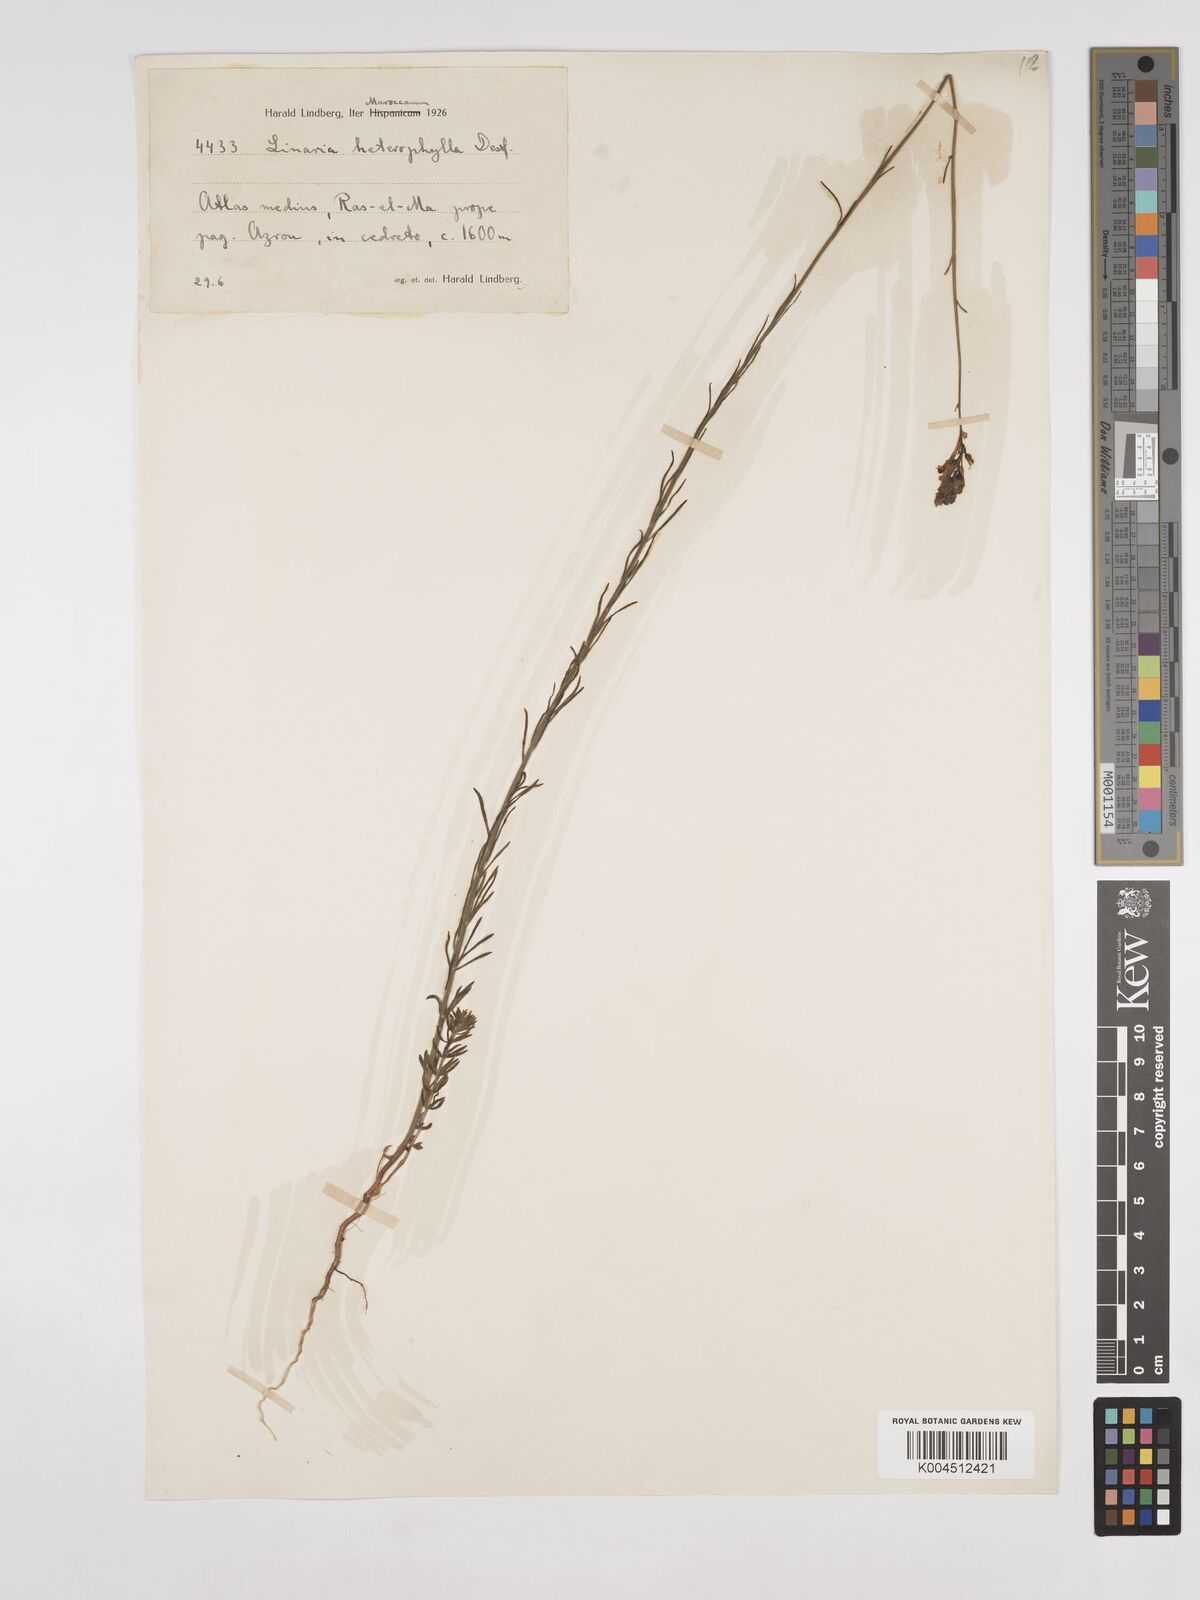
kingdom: Plantae
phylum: Tracheophyta
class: Magnoliopsida
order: Lamiales
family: Plantaginaceae
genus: Linaria
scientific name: Linaria multicaulis
